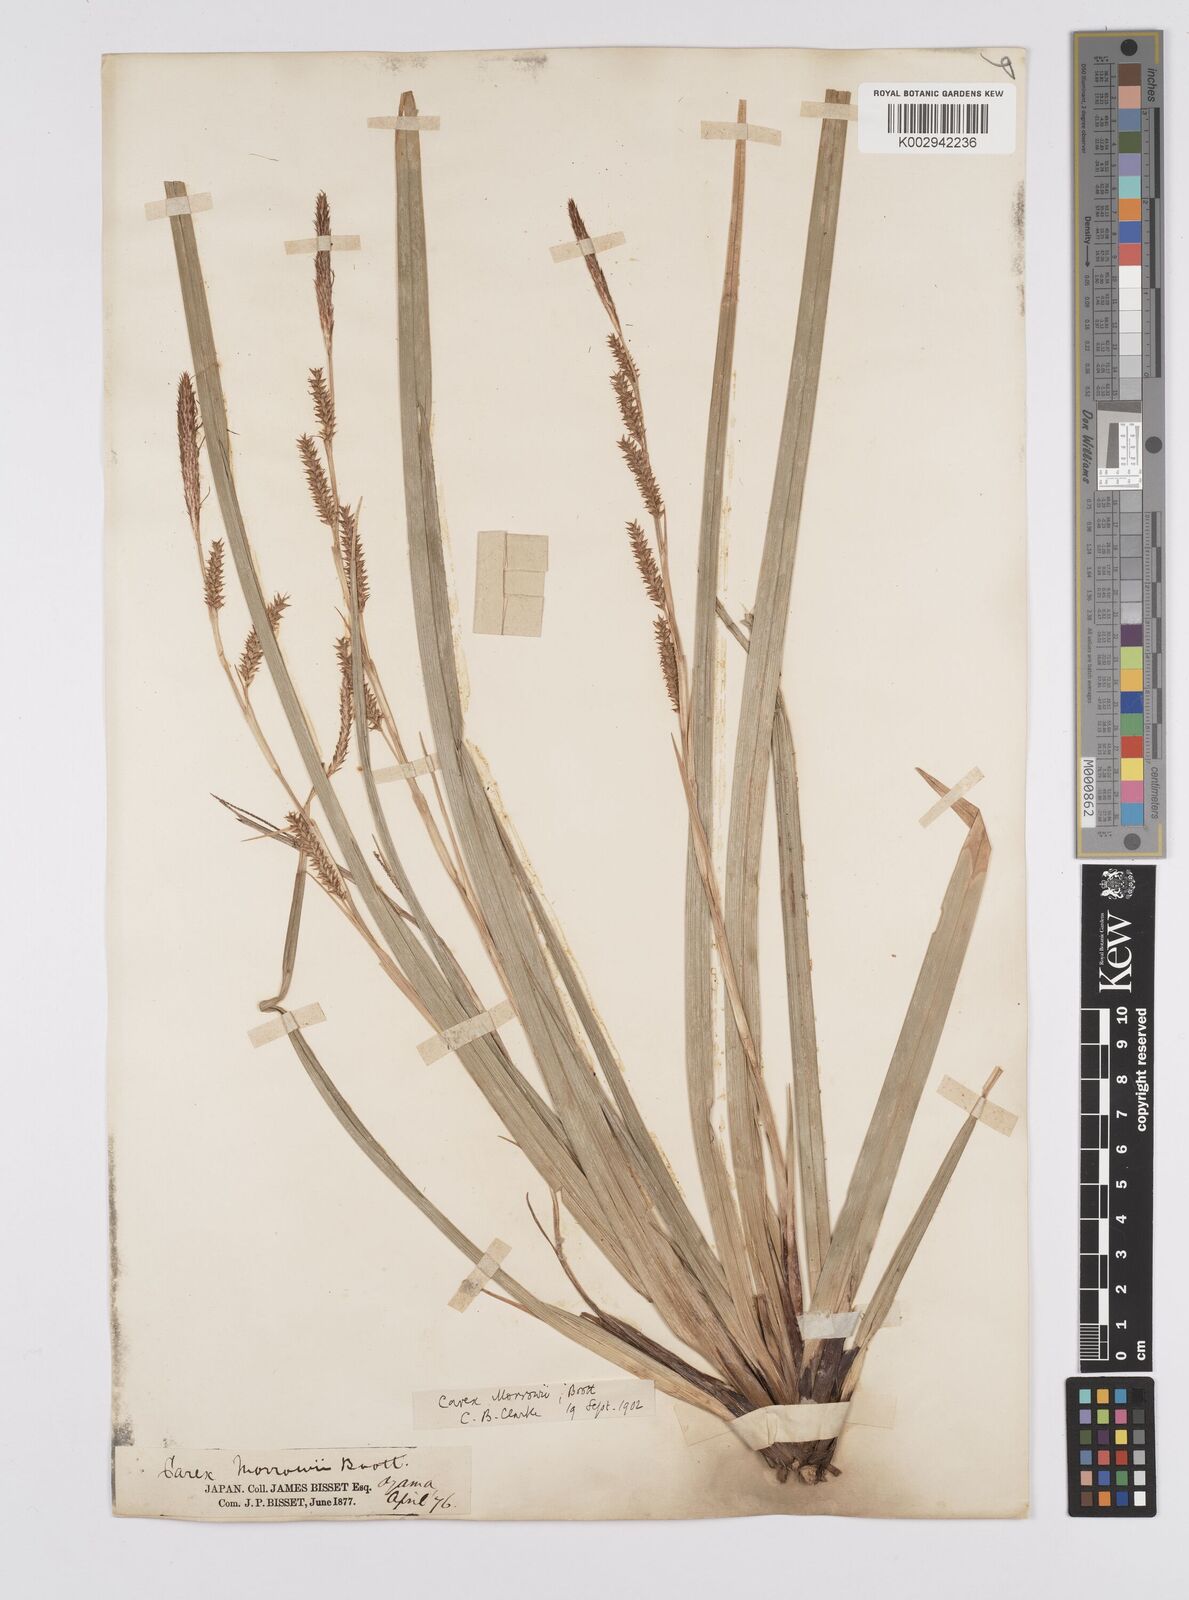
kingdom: Plantae
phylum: Tracheophyta
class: Liliopsida
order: Poales
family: Cyperaceae
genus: Carex
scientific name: Carex morrowii
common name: Japanese sedge
